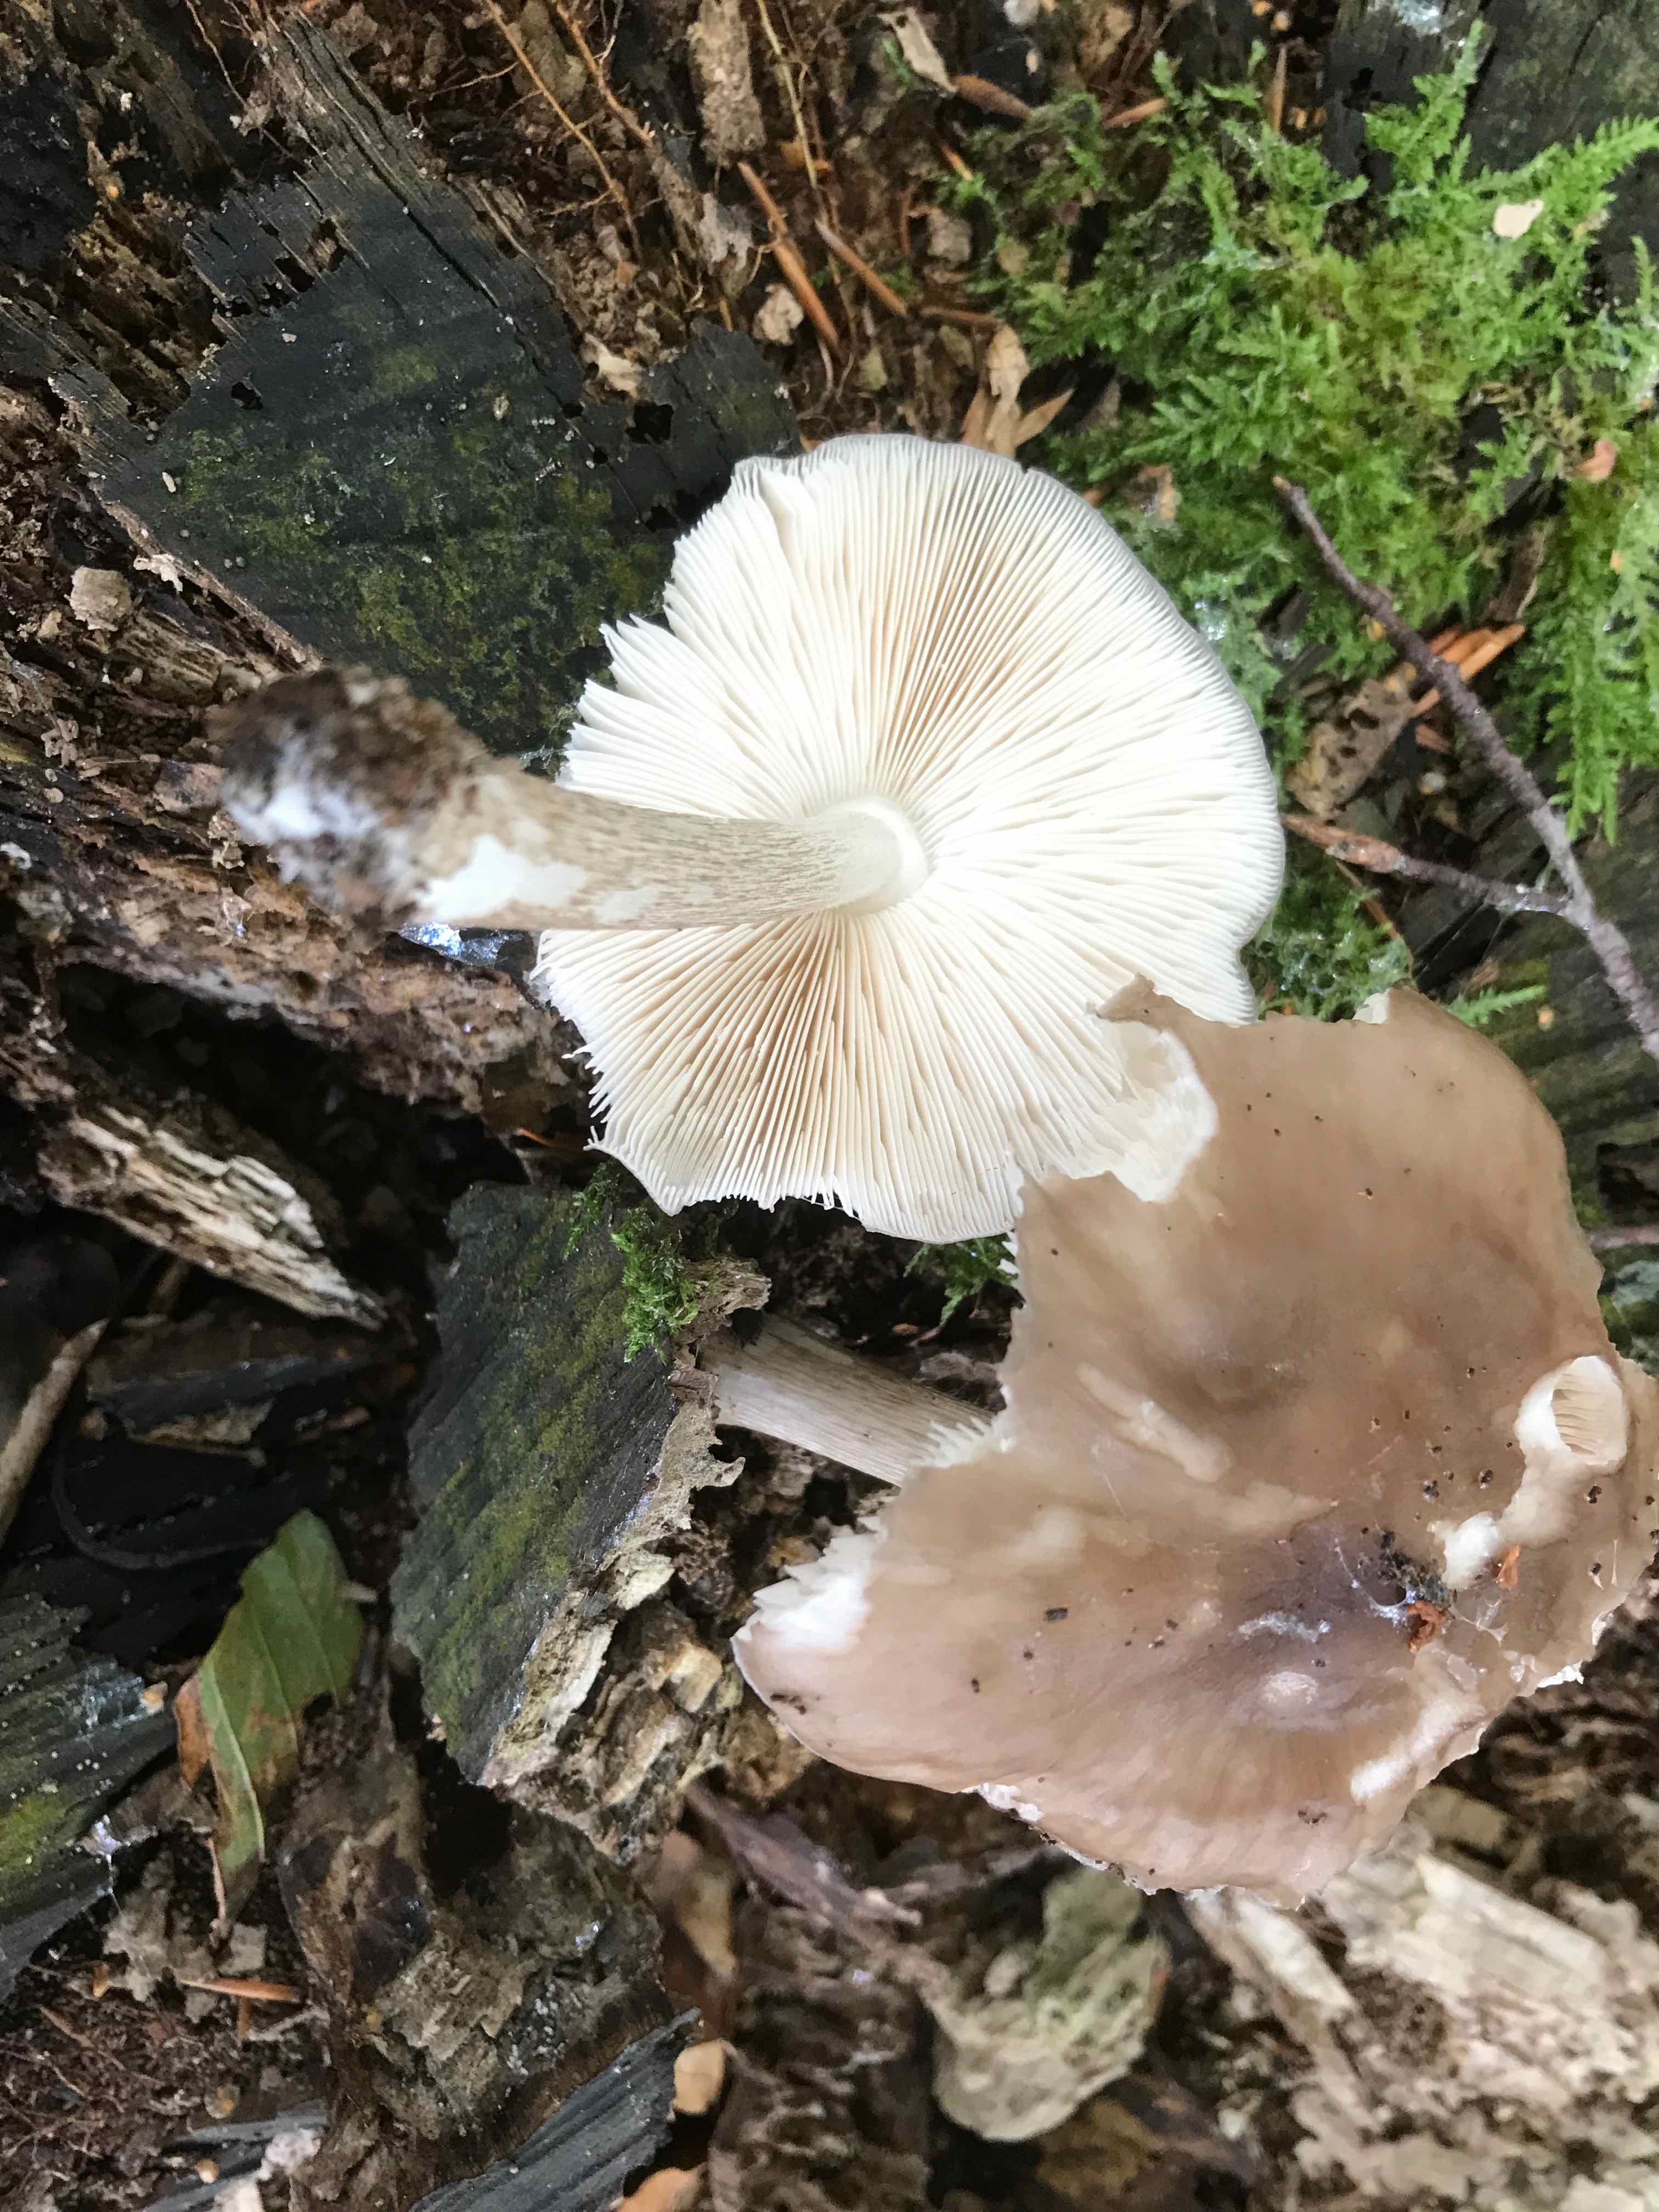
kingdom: Fungi
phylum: Basidiomycota
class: Agaricomycetes
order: Agaricales
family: Pluteaceae
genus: Pluteus
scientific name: Pluteus cervinus
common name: sodfarvet skærmhat
